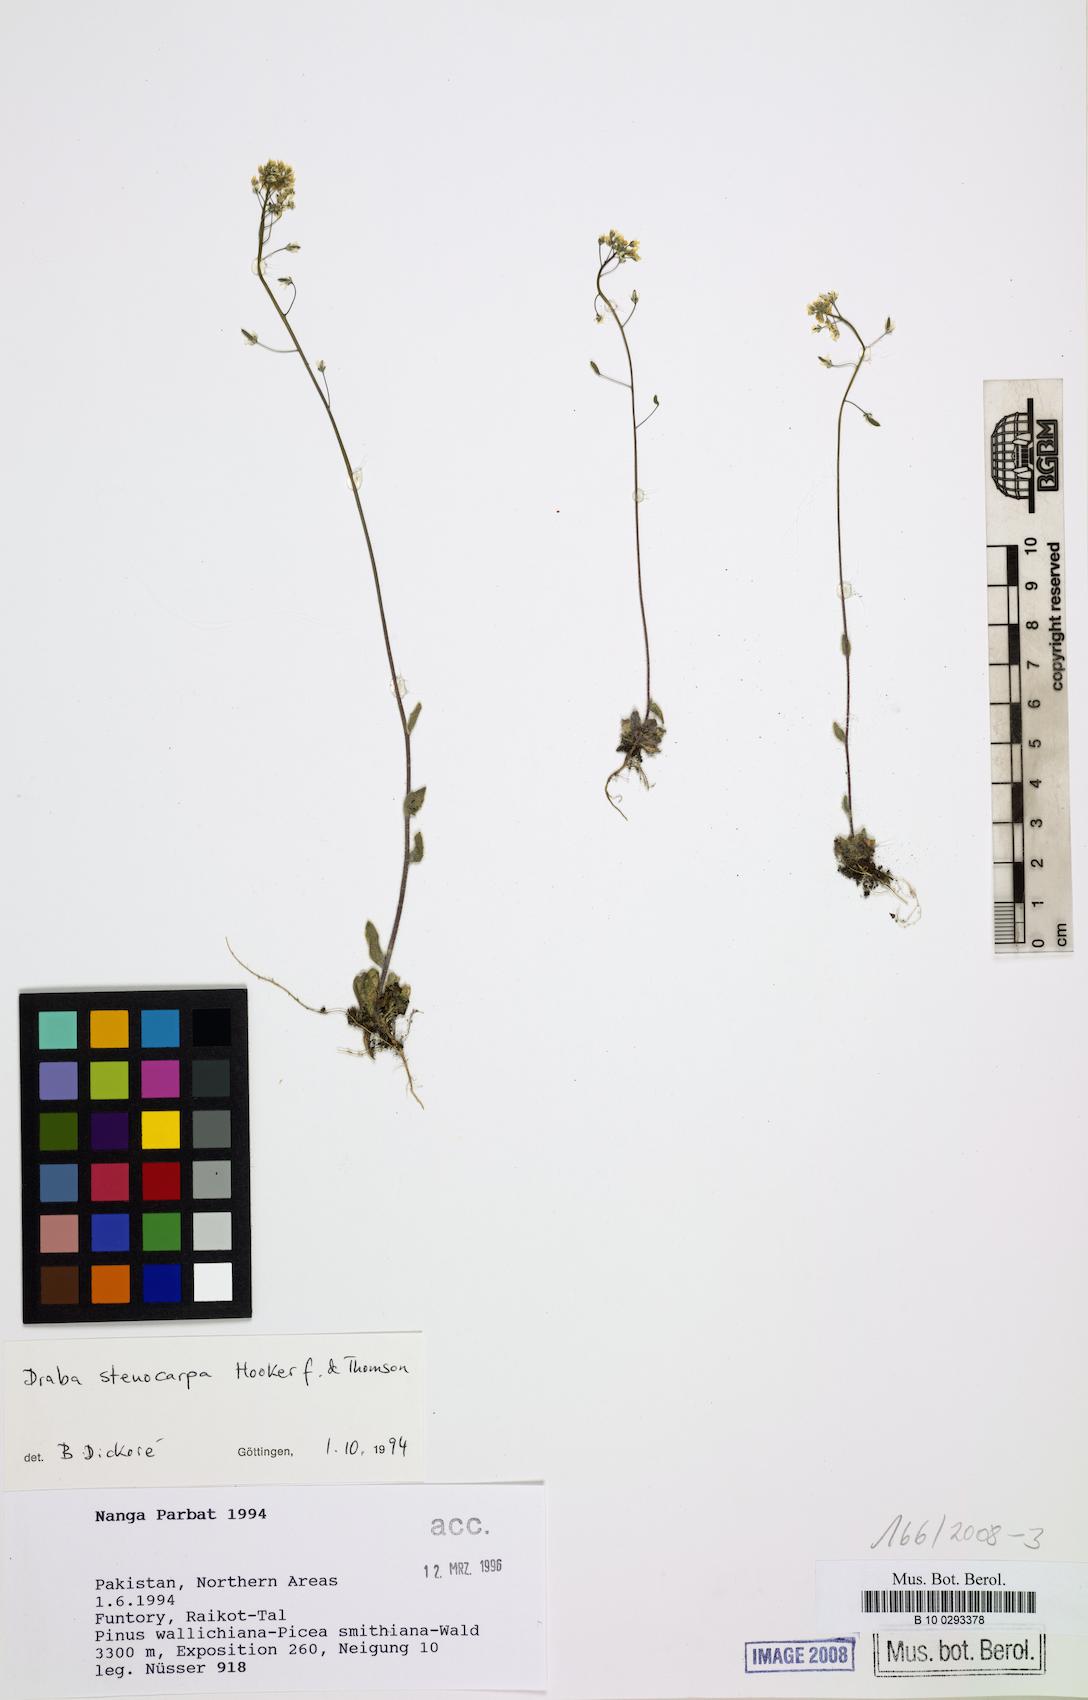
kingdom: Plantae
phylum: Tracheophyta
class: Magnoliopsida
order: Brassicales
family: Brassicaceae
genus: Draba
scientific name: Draba stenocarpa
